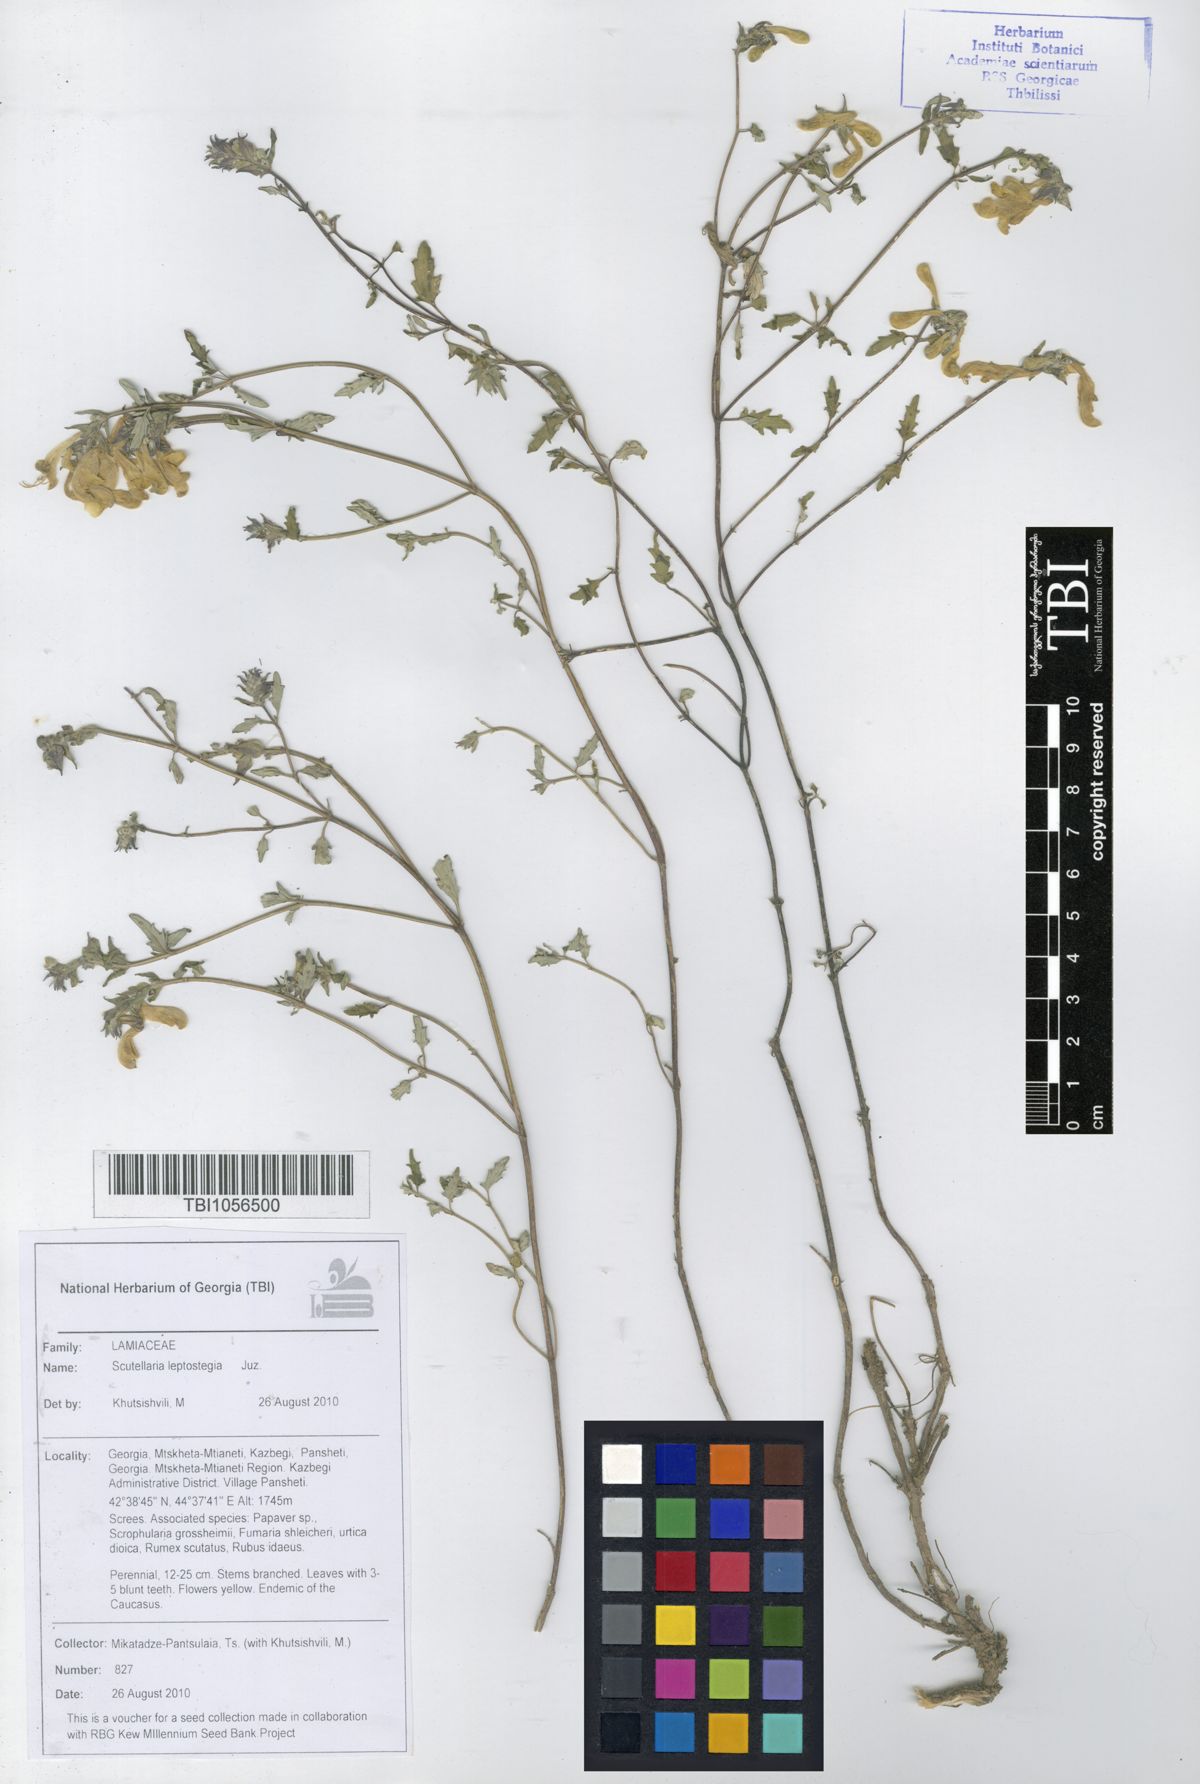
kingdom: Plantae
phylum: Tracheophyta
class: Magnoliopsida
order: Lamiales
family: Lamiaceae
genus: Scutellaria
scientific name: Scutellaria leptostegia
